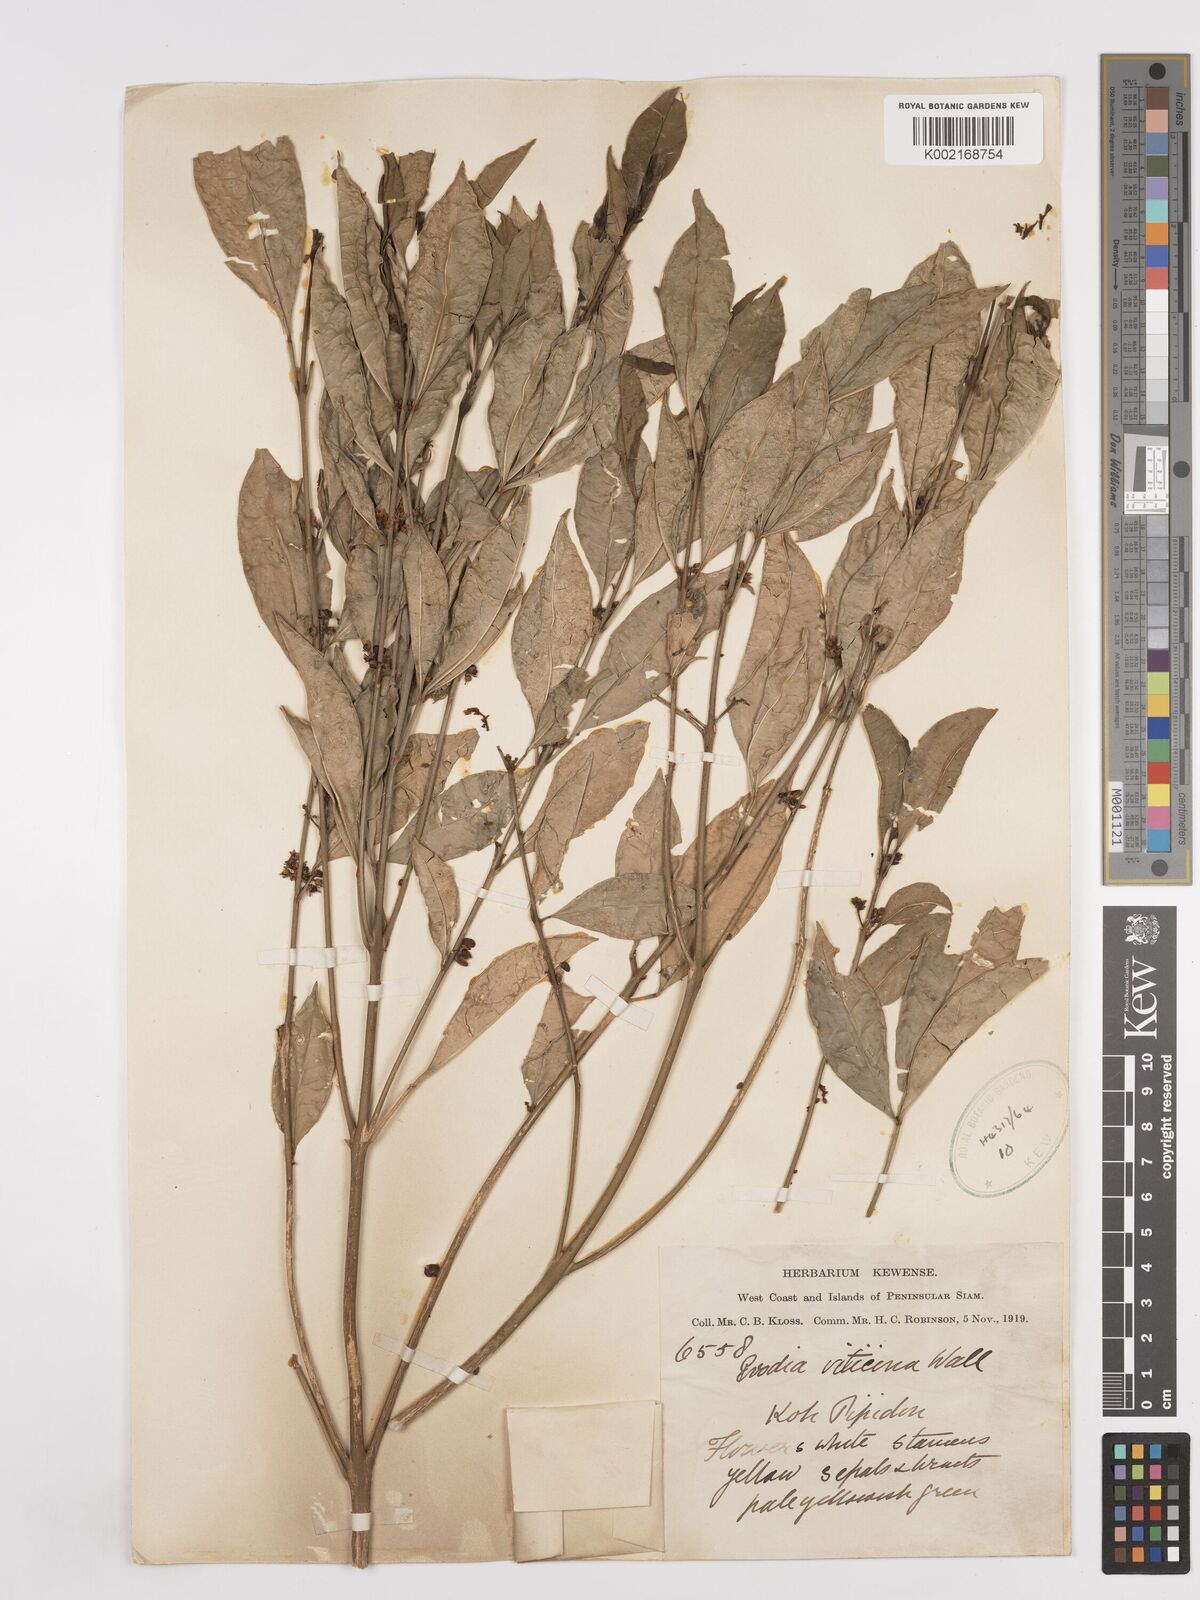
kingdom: Plantae
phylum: Tracheophyta
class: Magnoliopsida
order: Sapindales
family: Rutaceae
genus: Euodia
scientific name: Euodia
